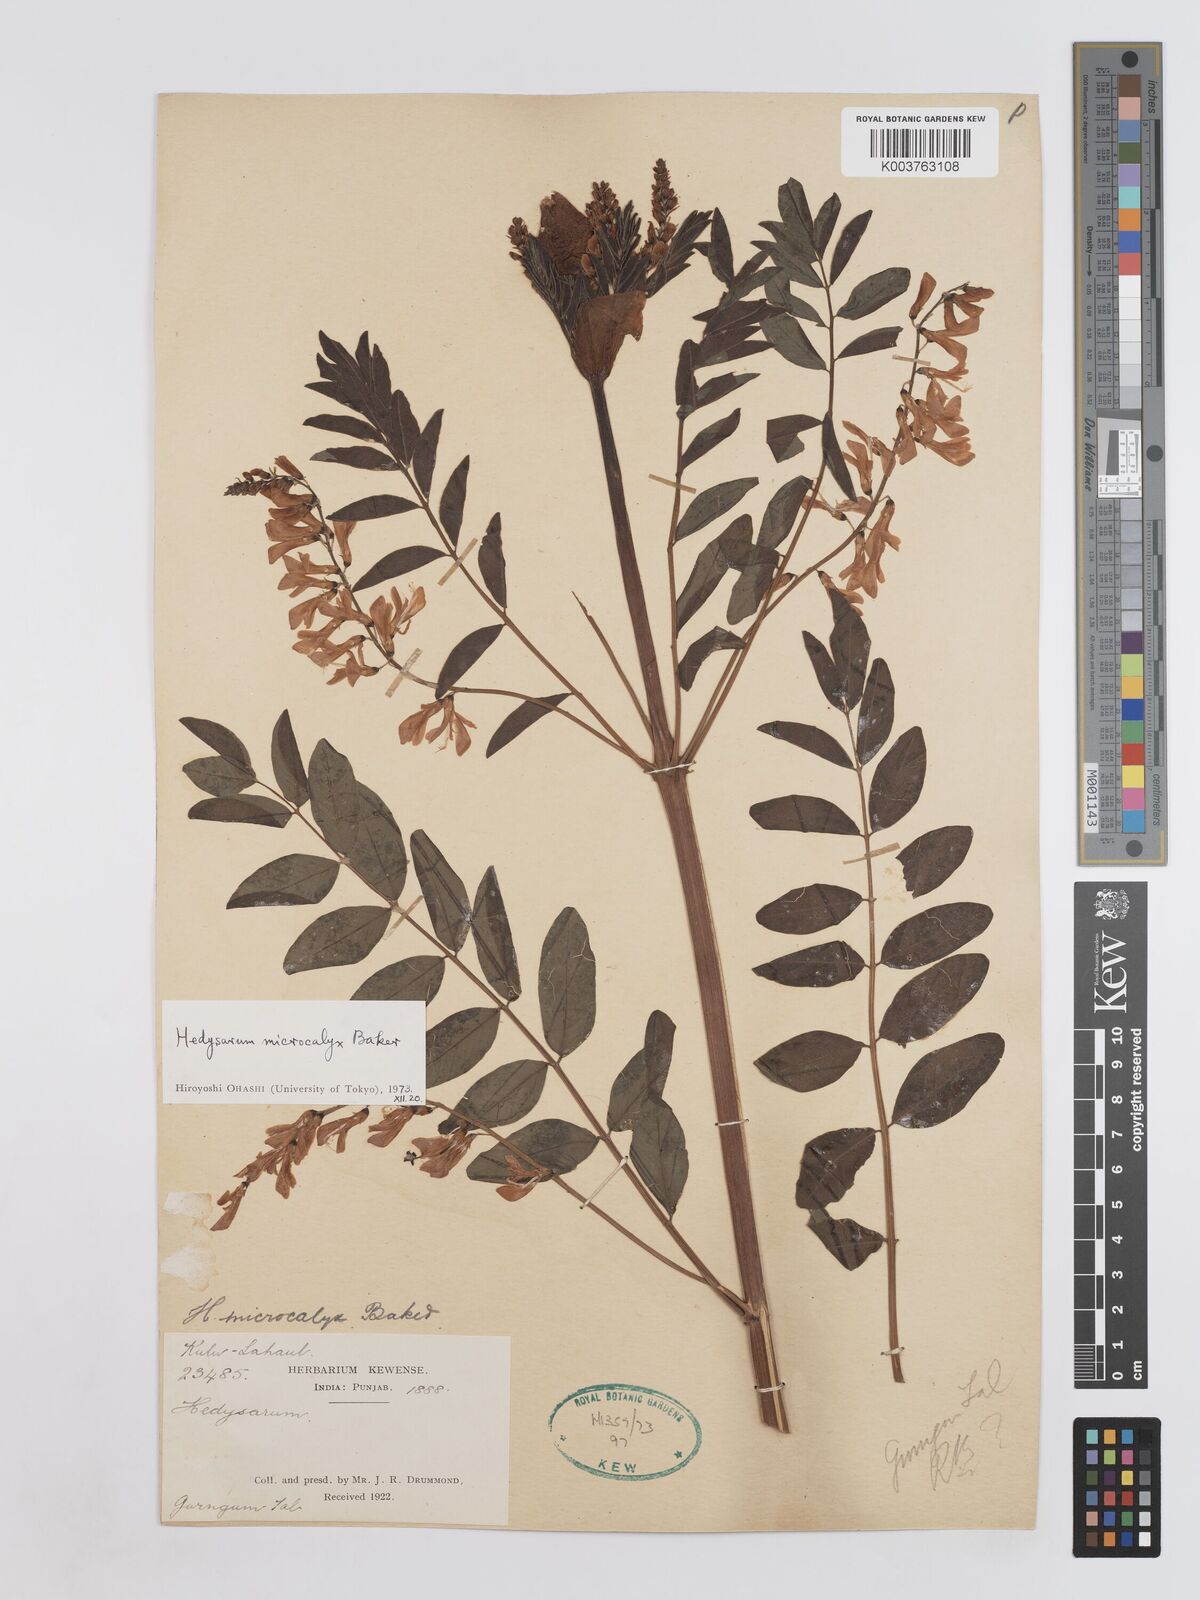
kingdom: Plantae
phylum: Tracheophyta
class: Magnoliopsida
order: Fabales
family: Fabaceae
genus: Hedysarum
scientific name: Hedysarum microcalyx
